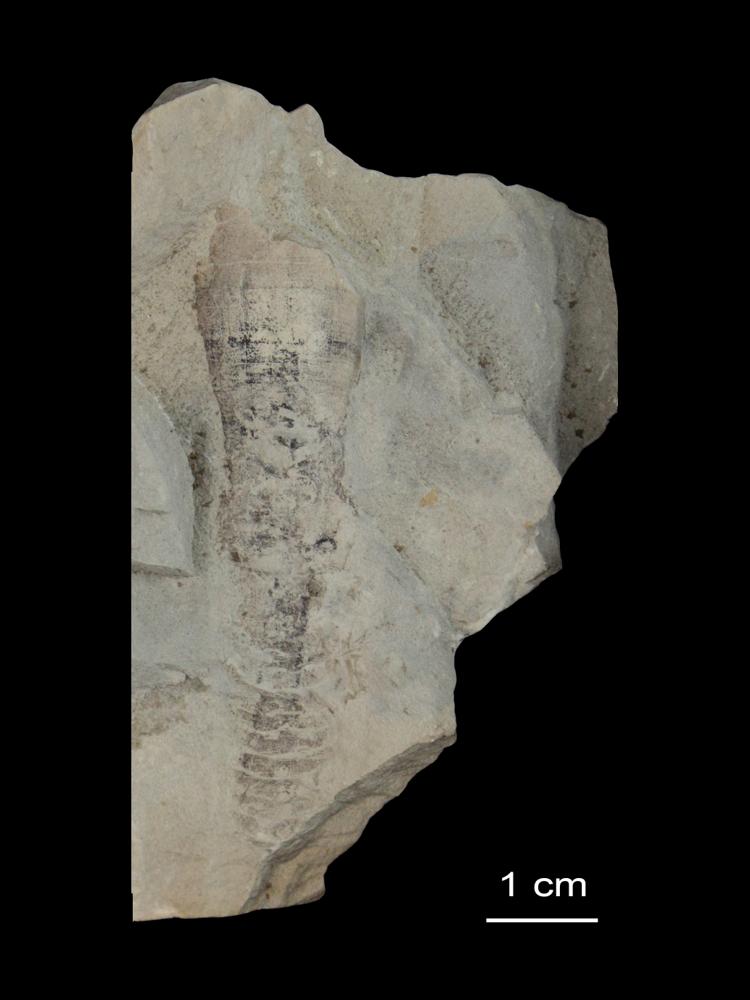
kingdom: Chromista
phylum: Foraminifera
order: Astrorhizida
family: Hyperamminidae
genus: Platysolenites
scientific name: Platysolenites antiquissimus
